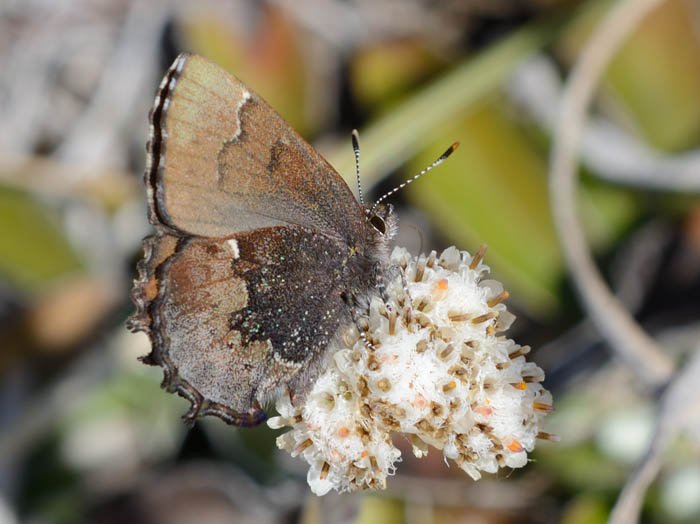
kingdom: Animalia
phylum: Arthropoda
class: Insecta
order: Lepidoptera
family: Lycaenidae
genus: Incisalia
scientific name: Incisalia henrici
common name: Henry's Elfin
